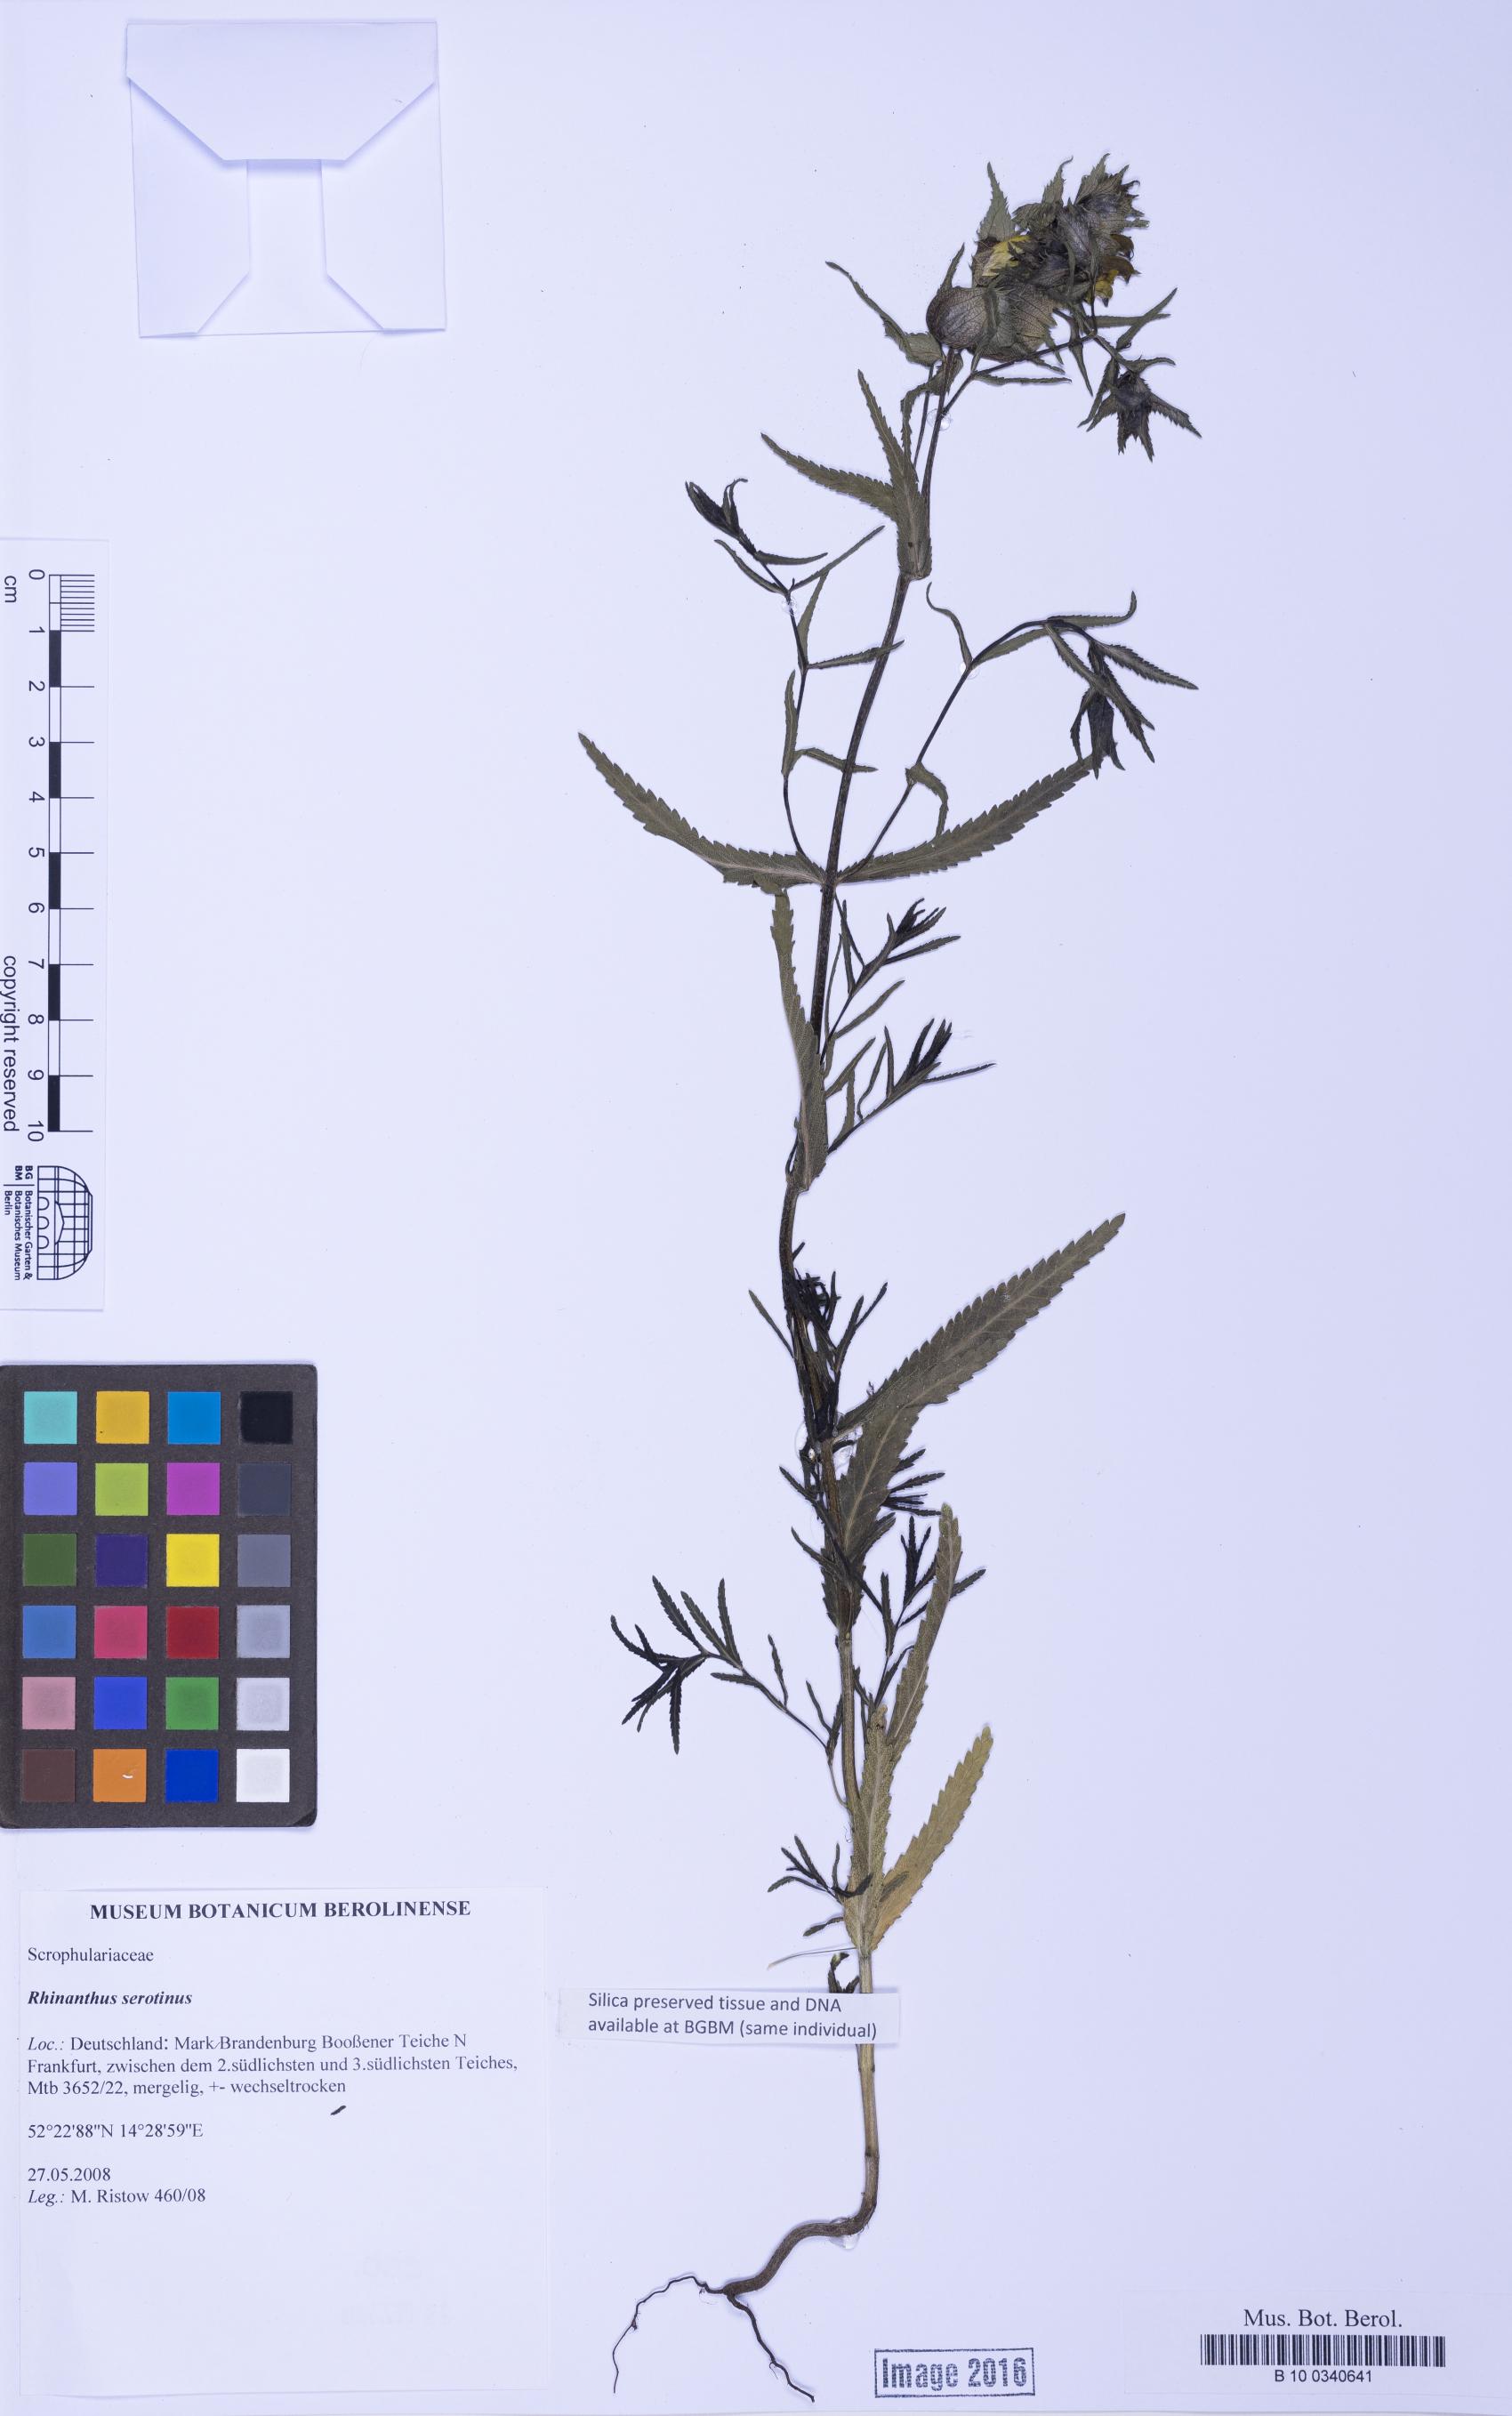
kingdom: Plantae
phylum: Tracheophyta
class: Magnoliopsida
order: Lamiales
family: Orobanchaceae
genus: Rhinanthus
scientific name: Rhinanthus serotinus
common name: Late-flowering yellow rattle
